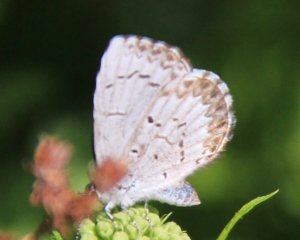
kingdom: Animalia
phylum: Arthropoda
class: Insecta
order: Lepidoptera
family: Lycaenidae
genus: Celastrina
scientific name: Celastrina
